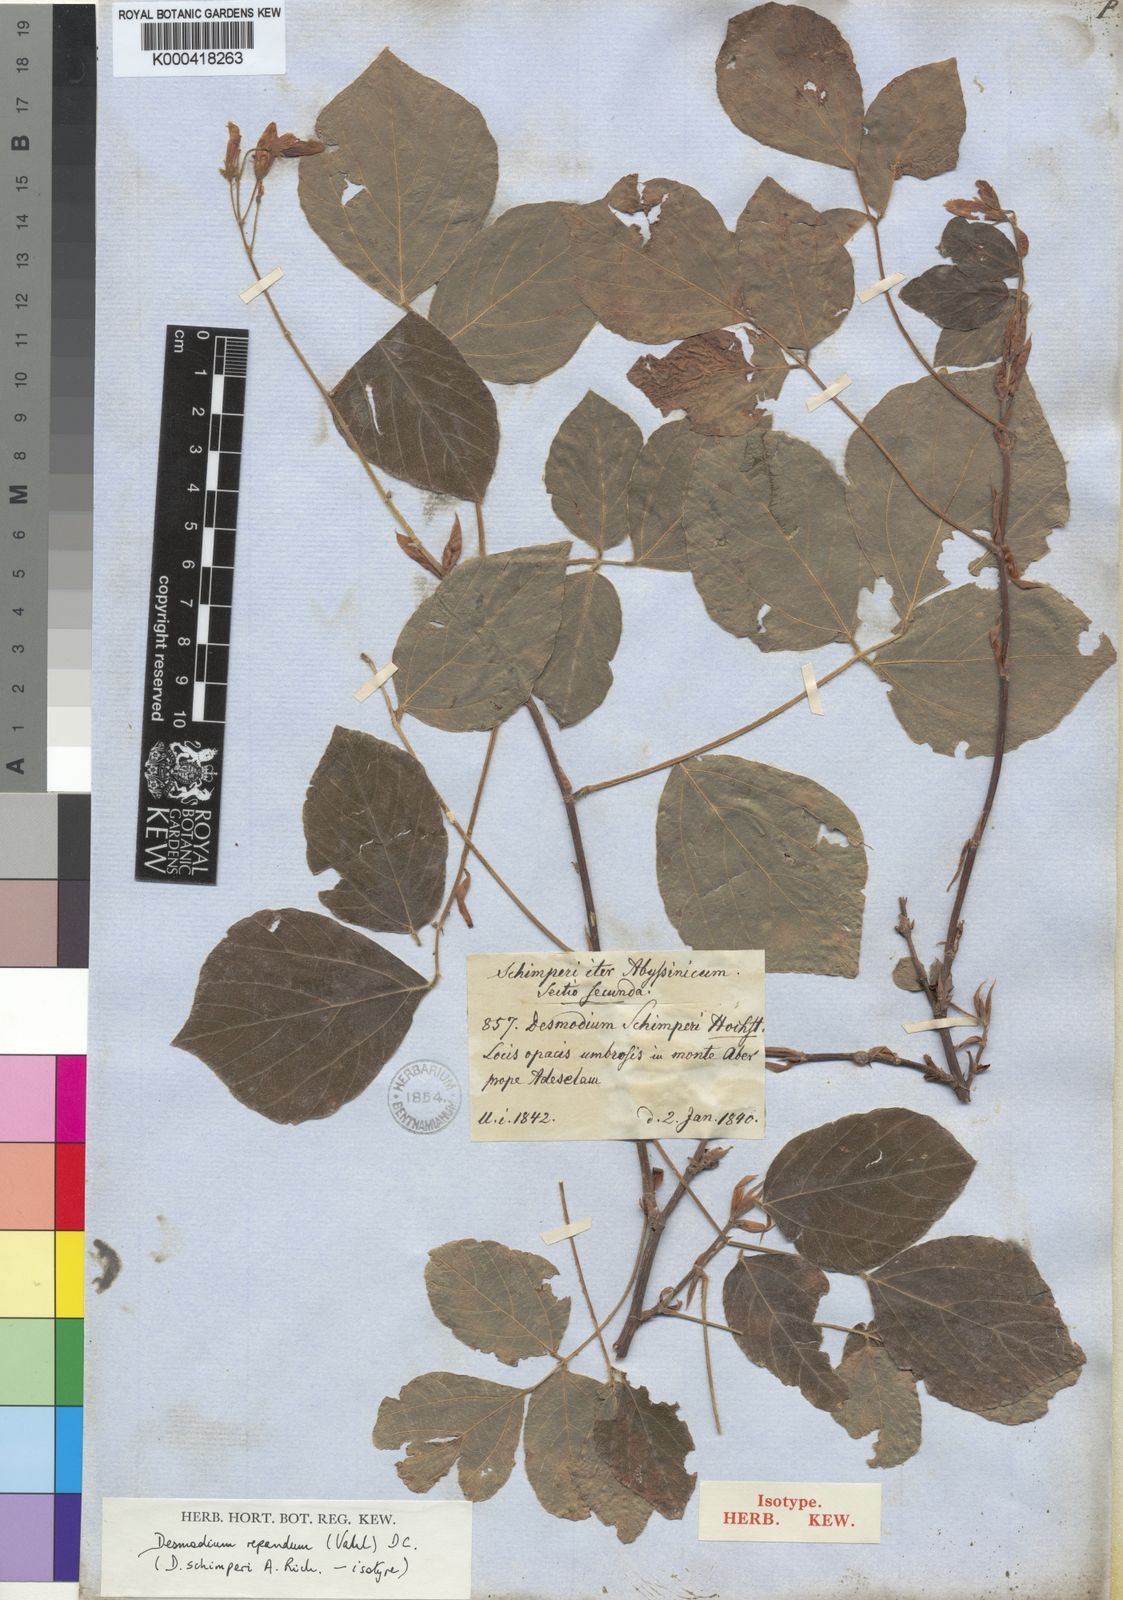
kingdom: Plantae
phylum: Tracheophyta
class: Magnoliopsida
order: Fabales
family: Fabaceae
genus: Desmodium
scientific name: Desmodium
